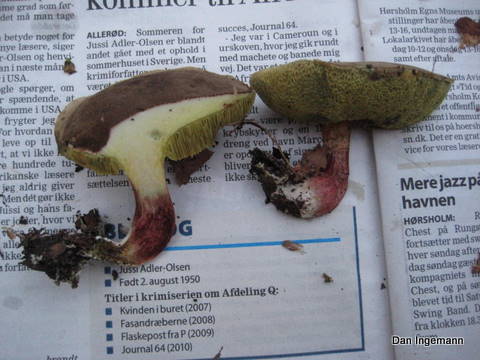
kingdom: Fungi
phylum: Basidiomycota
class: Agaricomycetes
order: Boletales
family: Boletaceae
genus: Xerocomellus
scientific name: Xerocomellus chrysenteron
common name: rødsprukken rørhat
